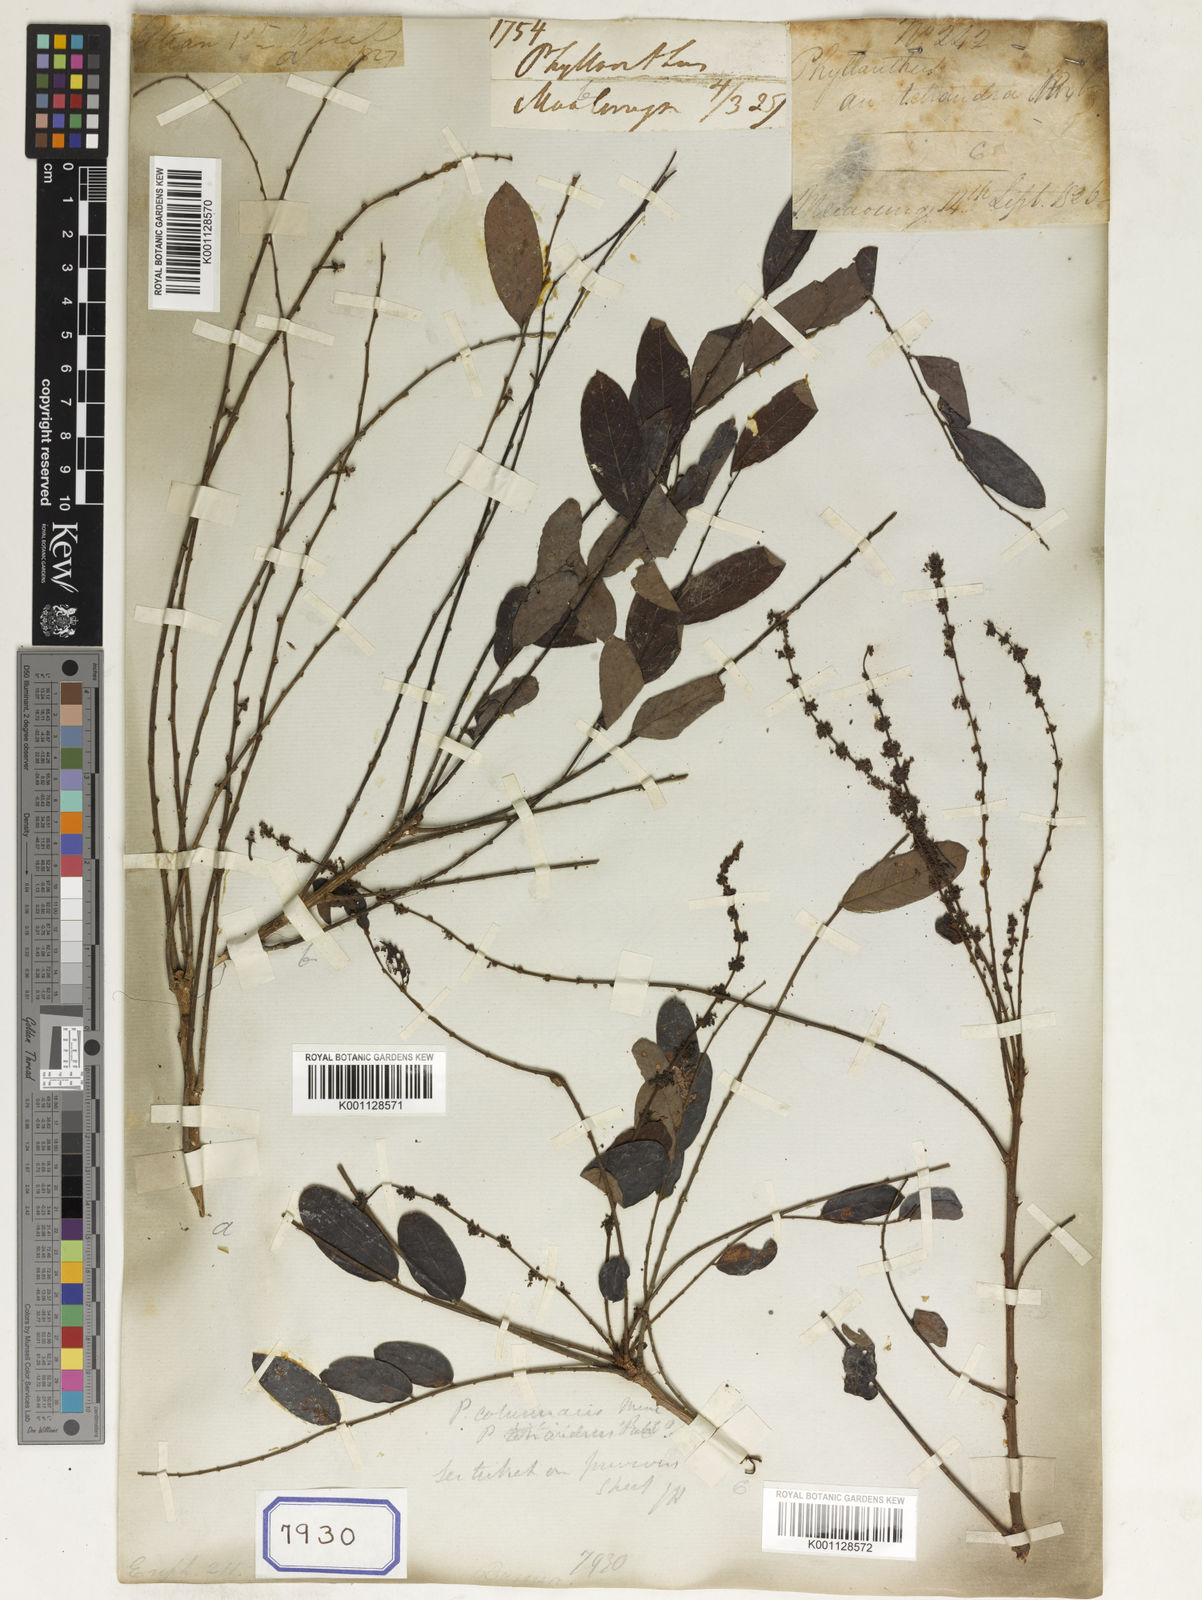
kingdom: Plantae
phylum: Tracheophyta
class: Magnoliopsida
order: Malpighiales
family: Euphorbiaceae
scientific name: Euphorbiaceae
